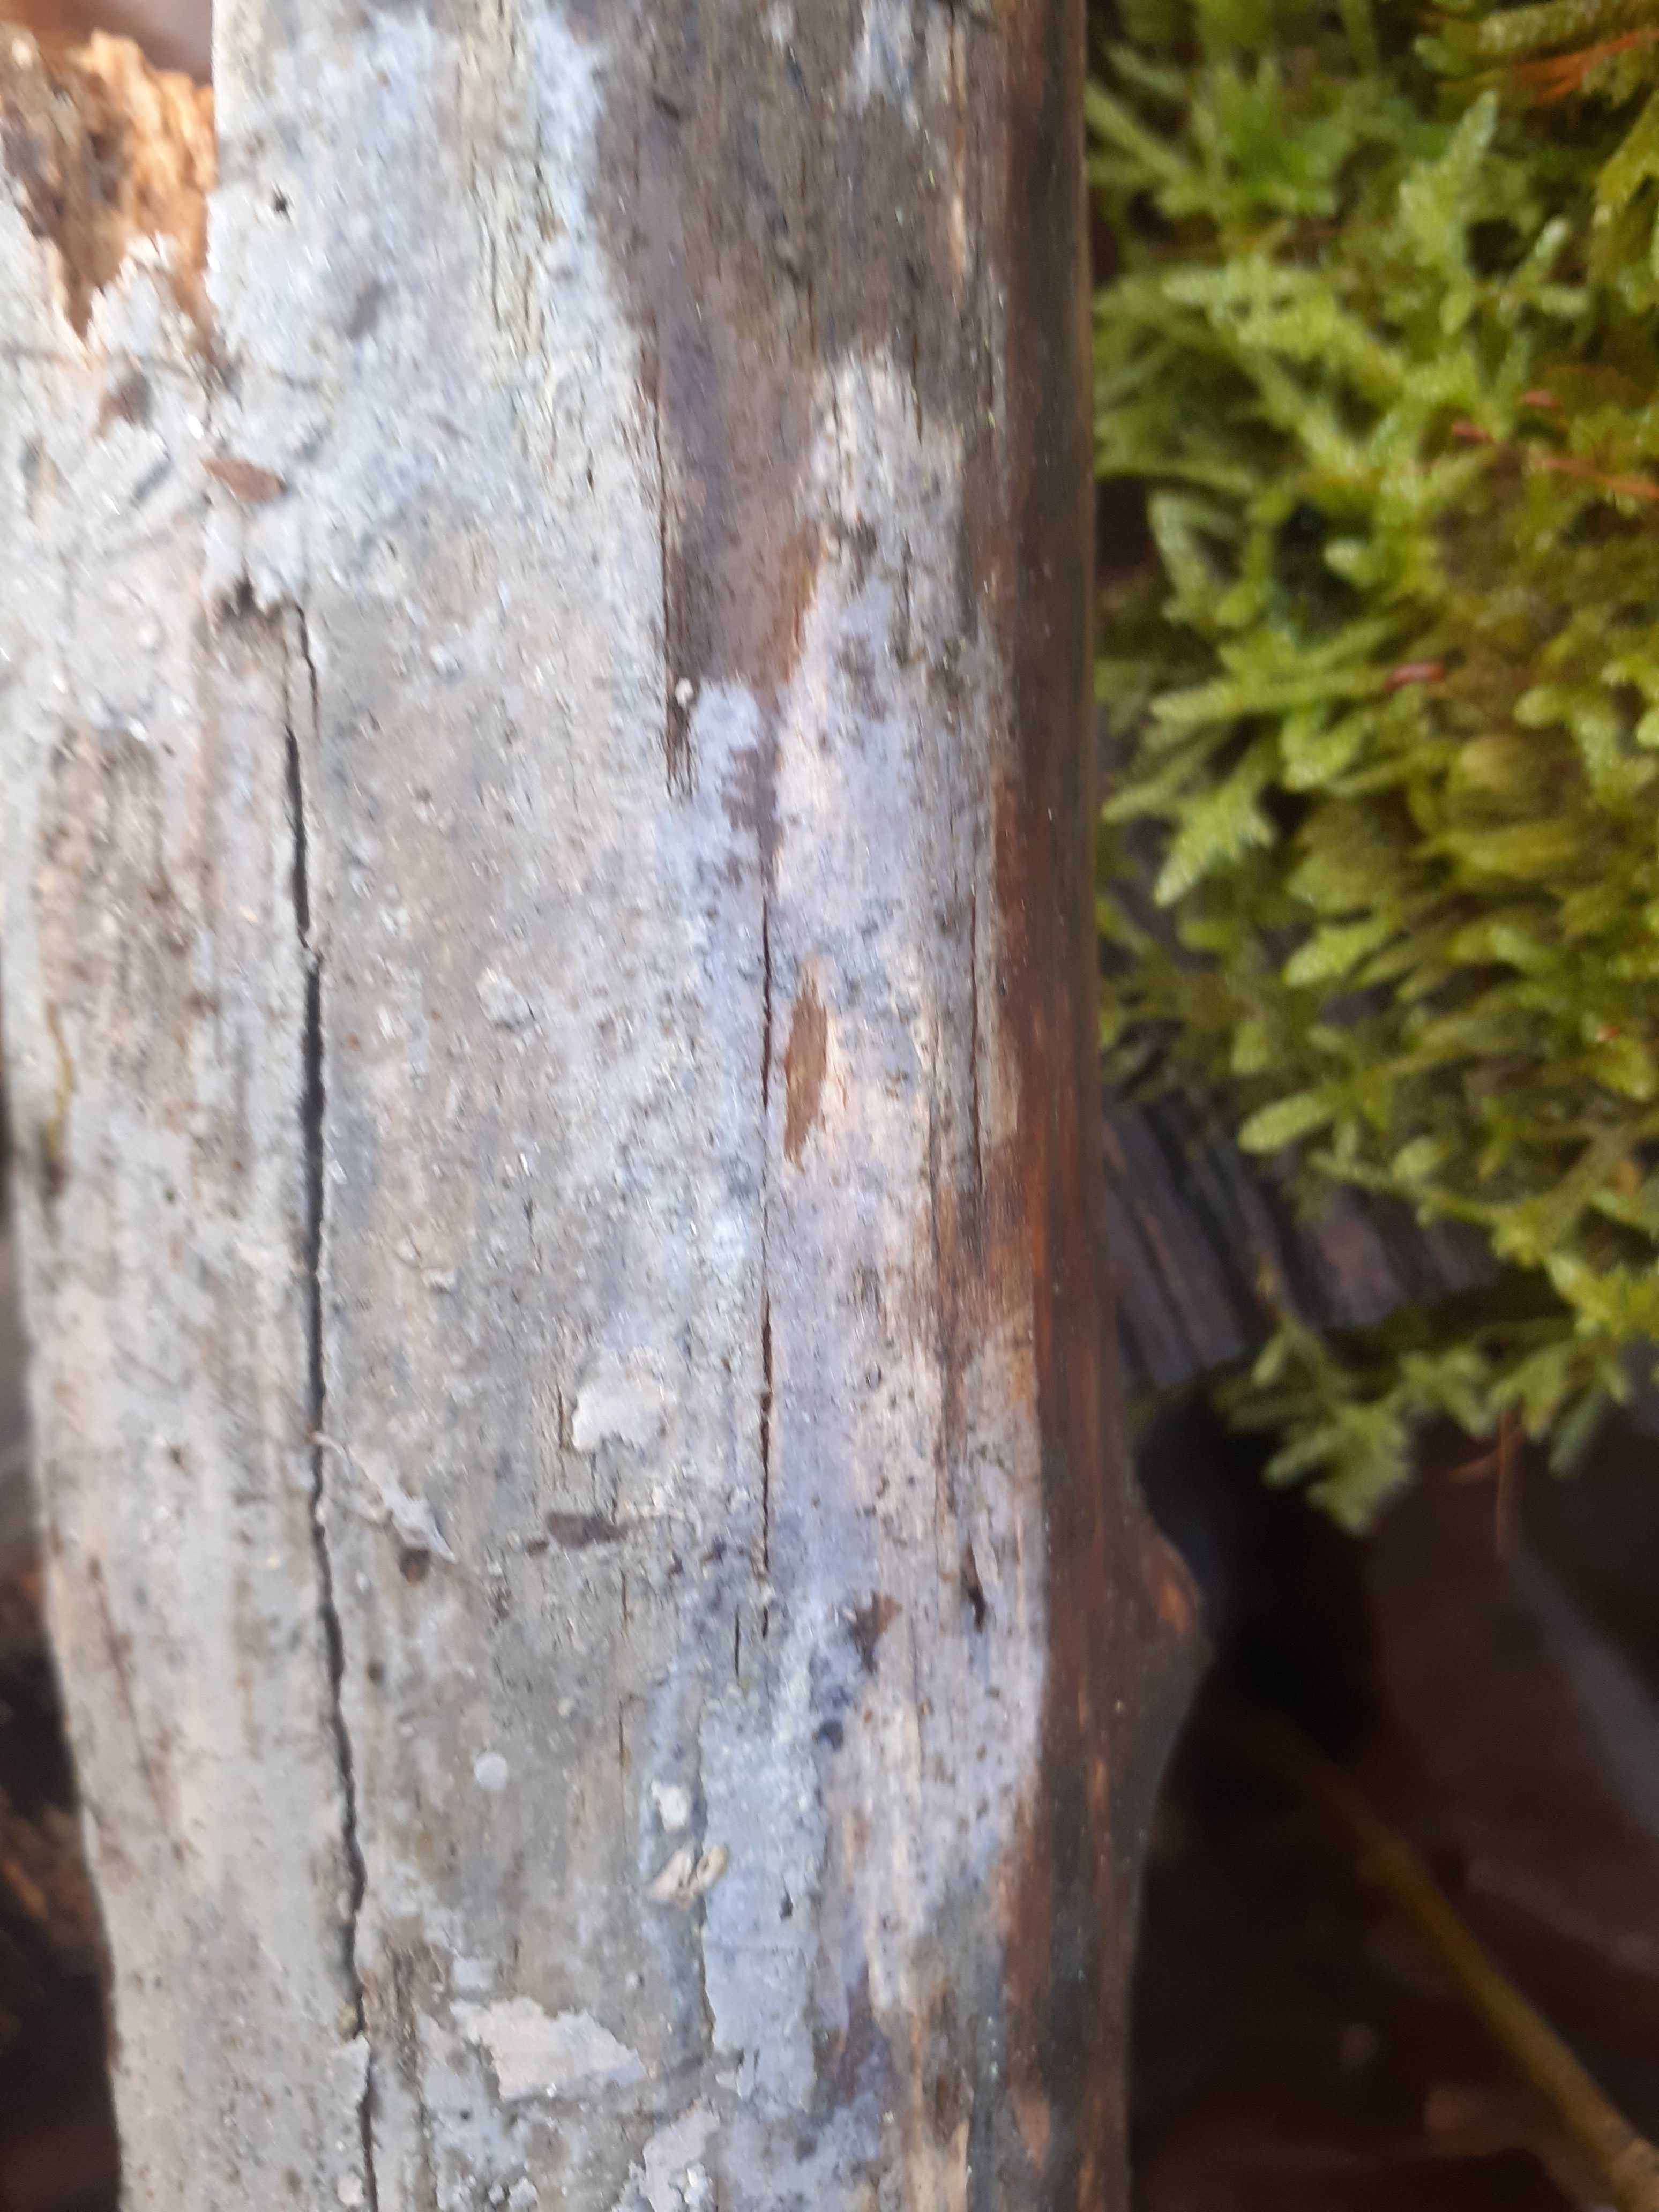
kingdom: Fungi
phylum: Basidiomycota
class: Tremellomycetes
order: Tremellales
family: Exidiaceae
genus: Exidiopsis
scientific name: Exidiopsis effusa
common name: smuk bævrehinde
